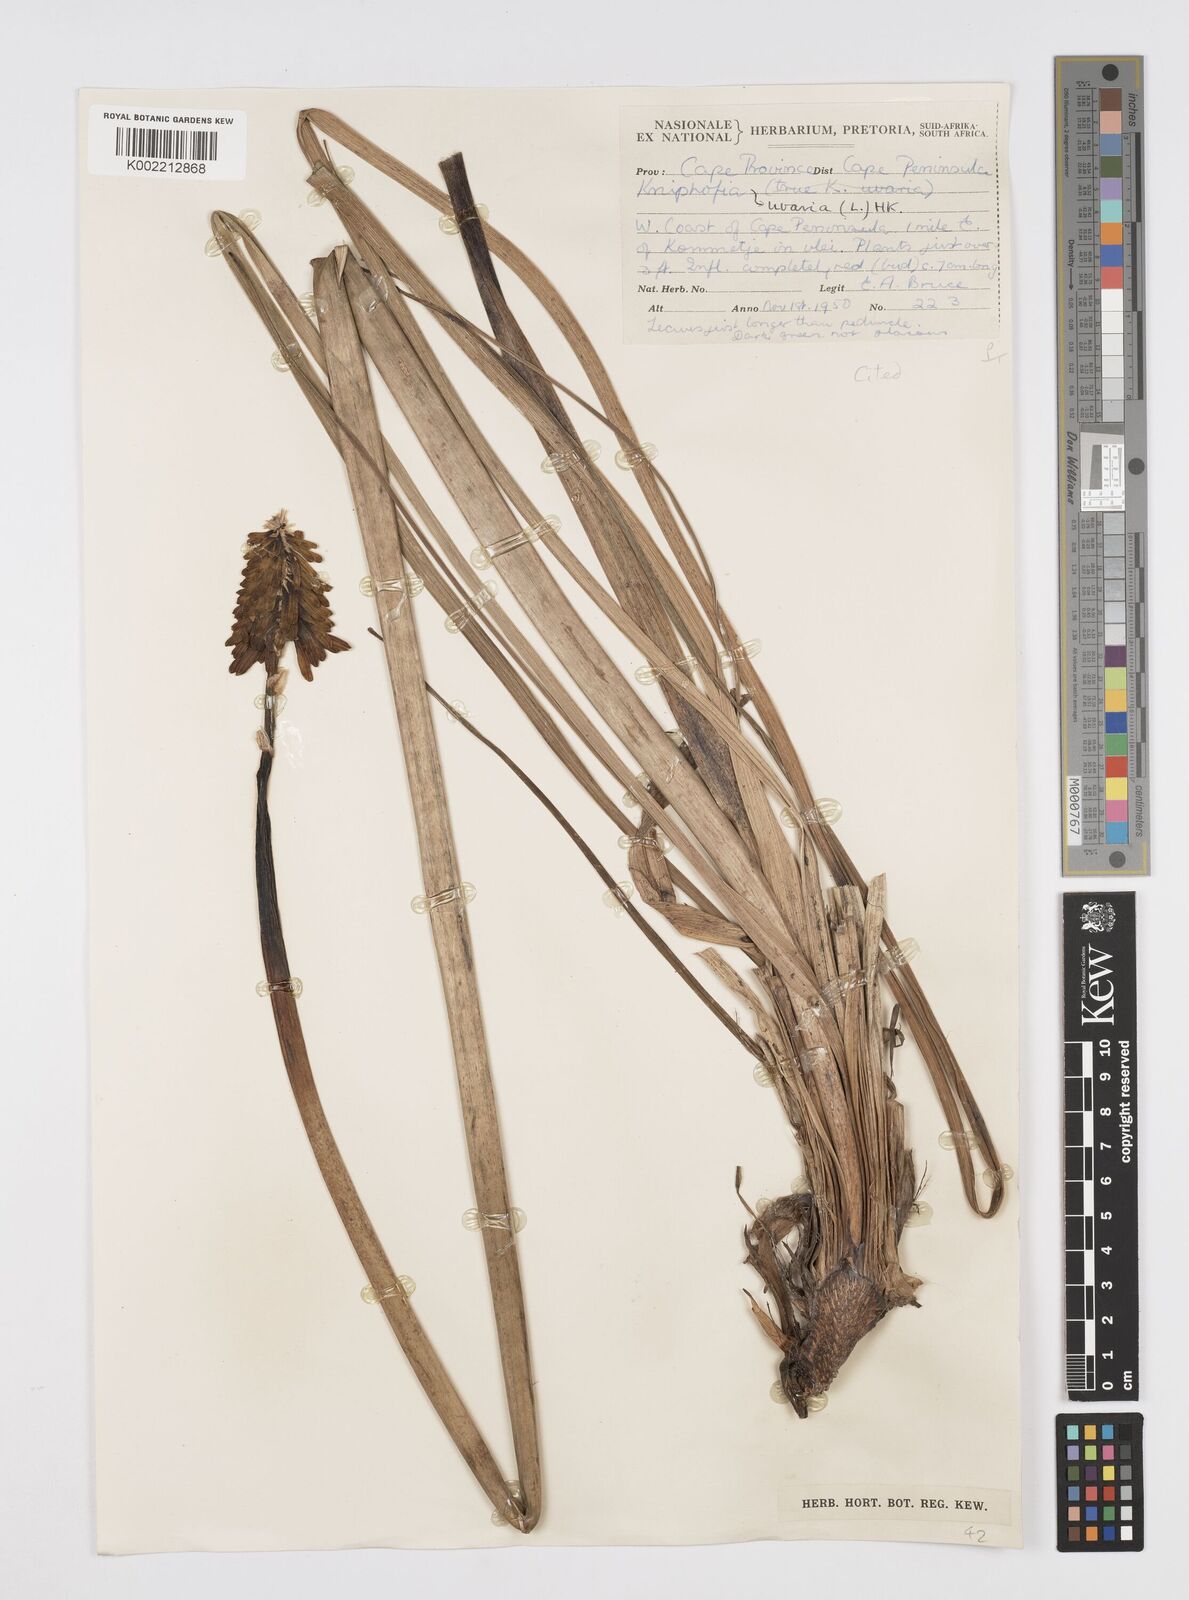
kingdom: Plantae
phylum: Tracheophyta
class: Liliopsida
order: Asparagales
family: Asphodelaceae
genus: Kniphofia
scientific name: Kniphofia uvaria
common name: Red-hot-poker
